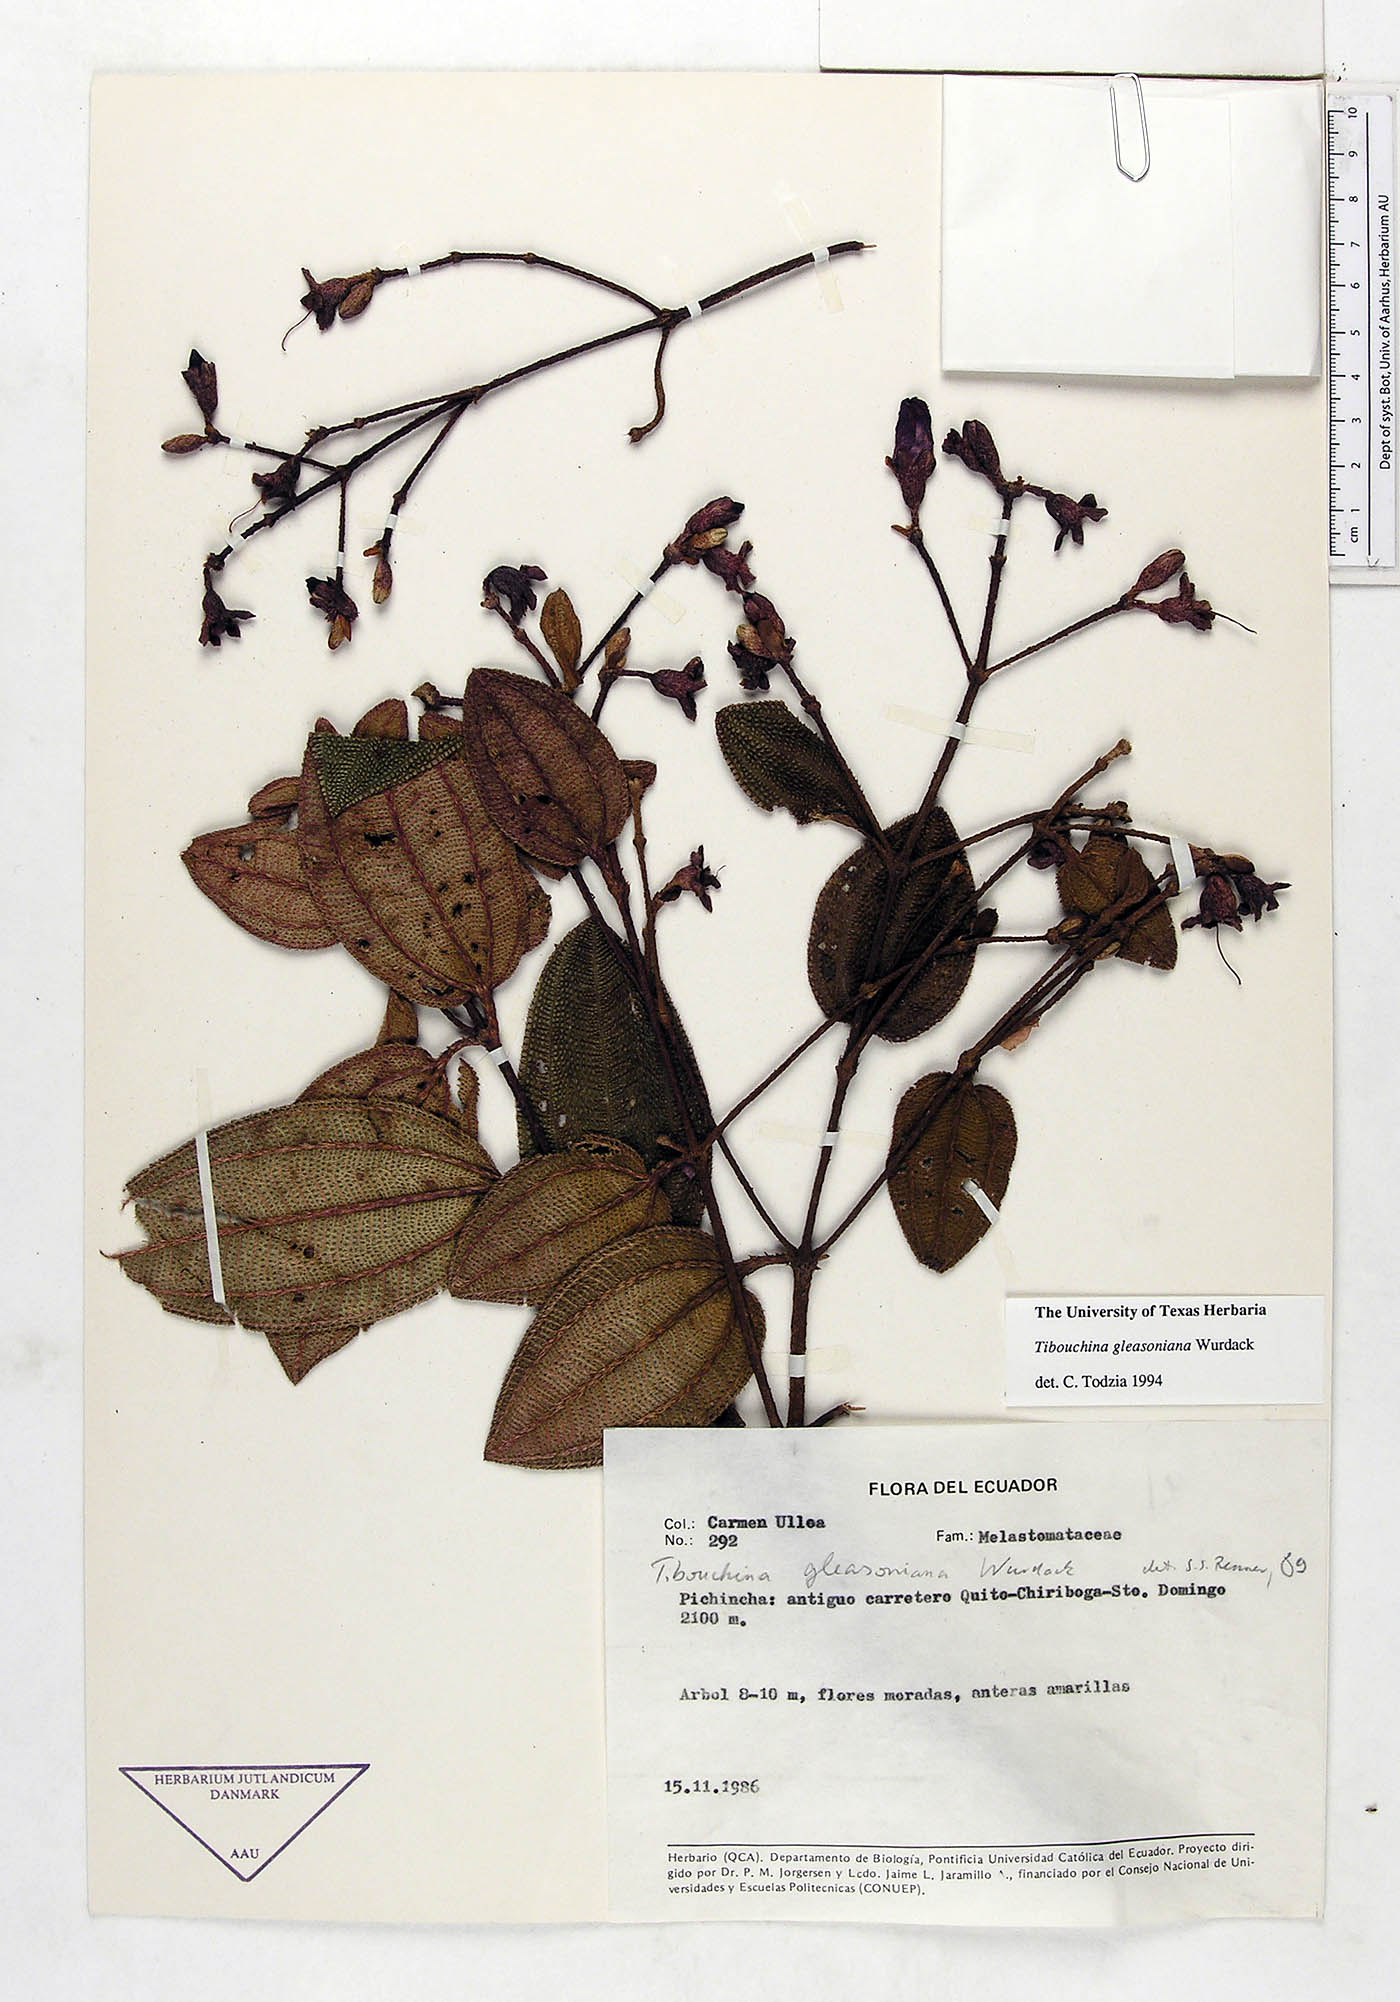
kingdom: Plantae
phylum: Tracheophyta
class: Magnoliopsida
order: Myrtales
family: Melastomataceae
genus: Andesanthus
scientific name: Andesanthus gleasonianus
